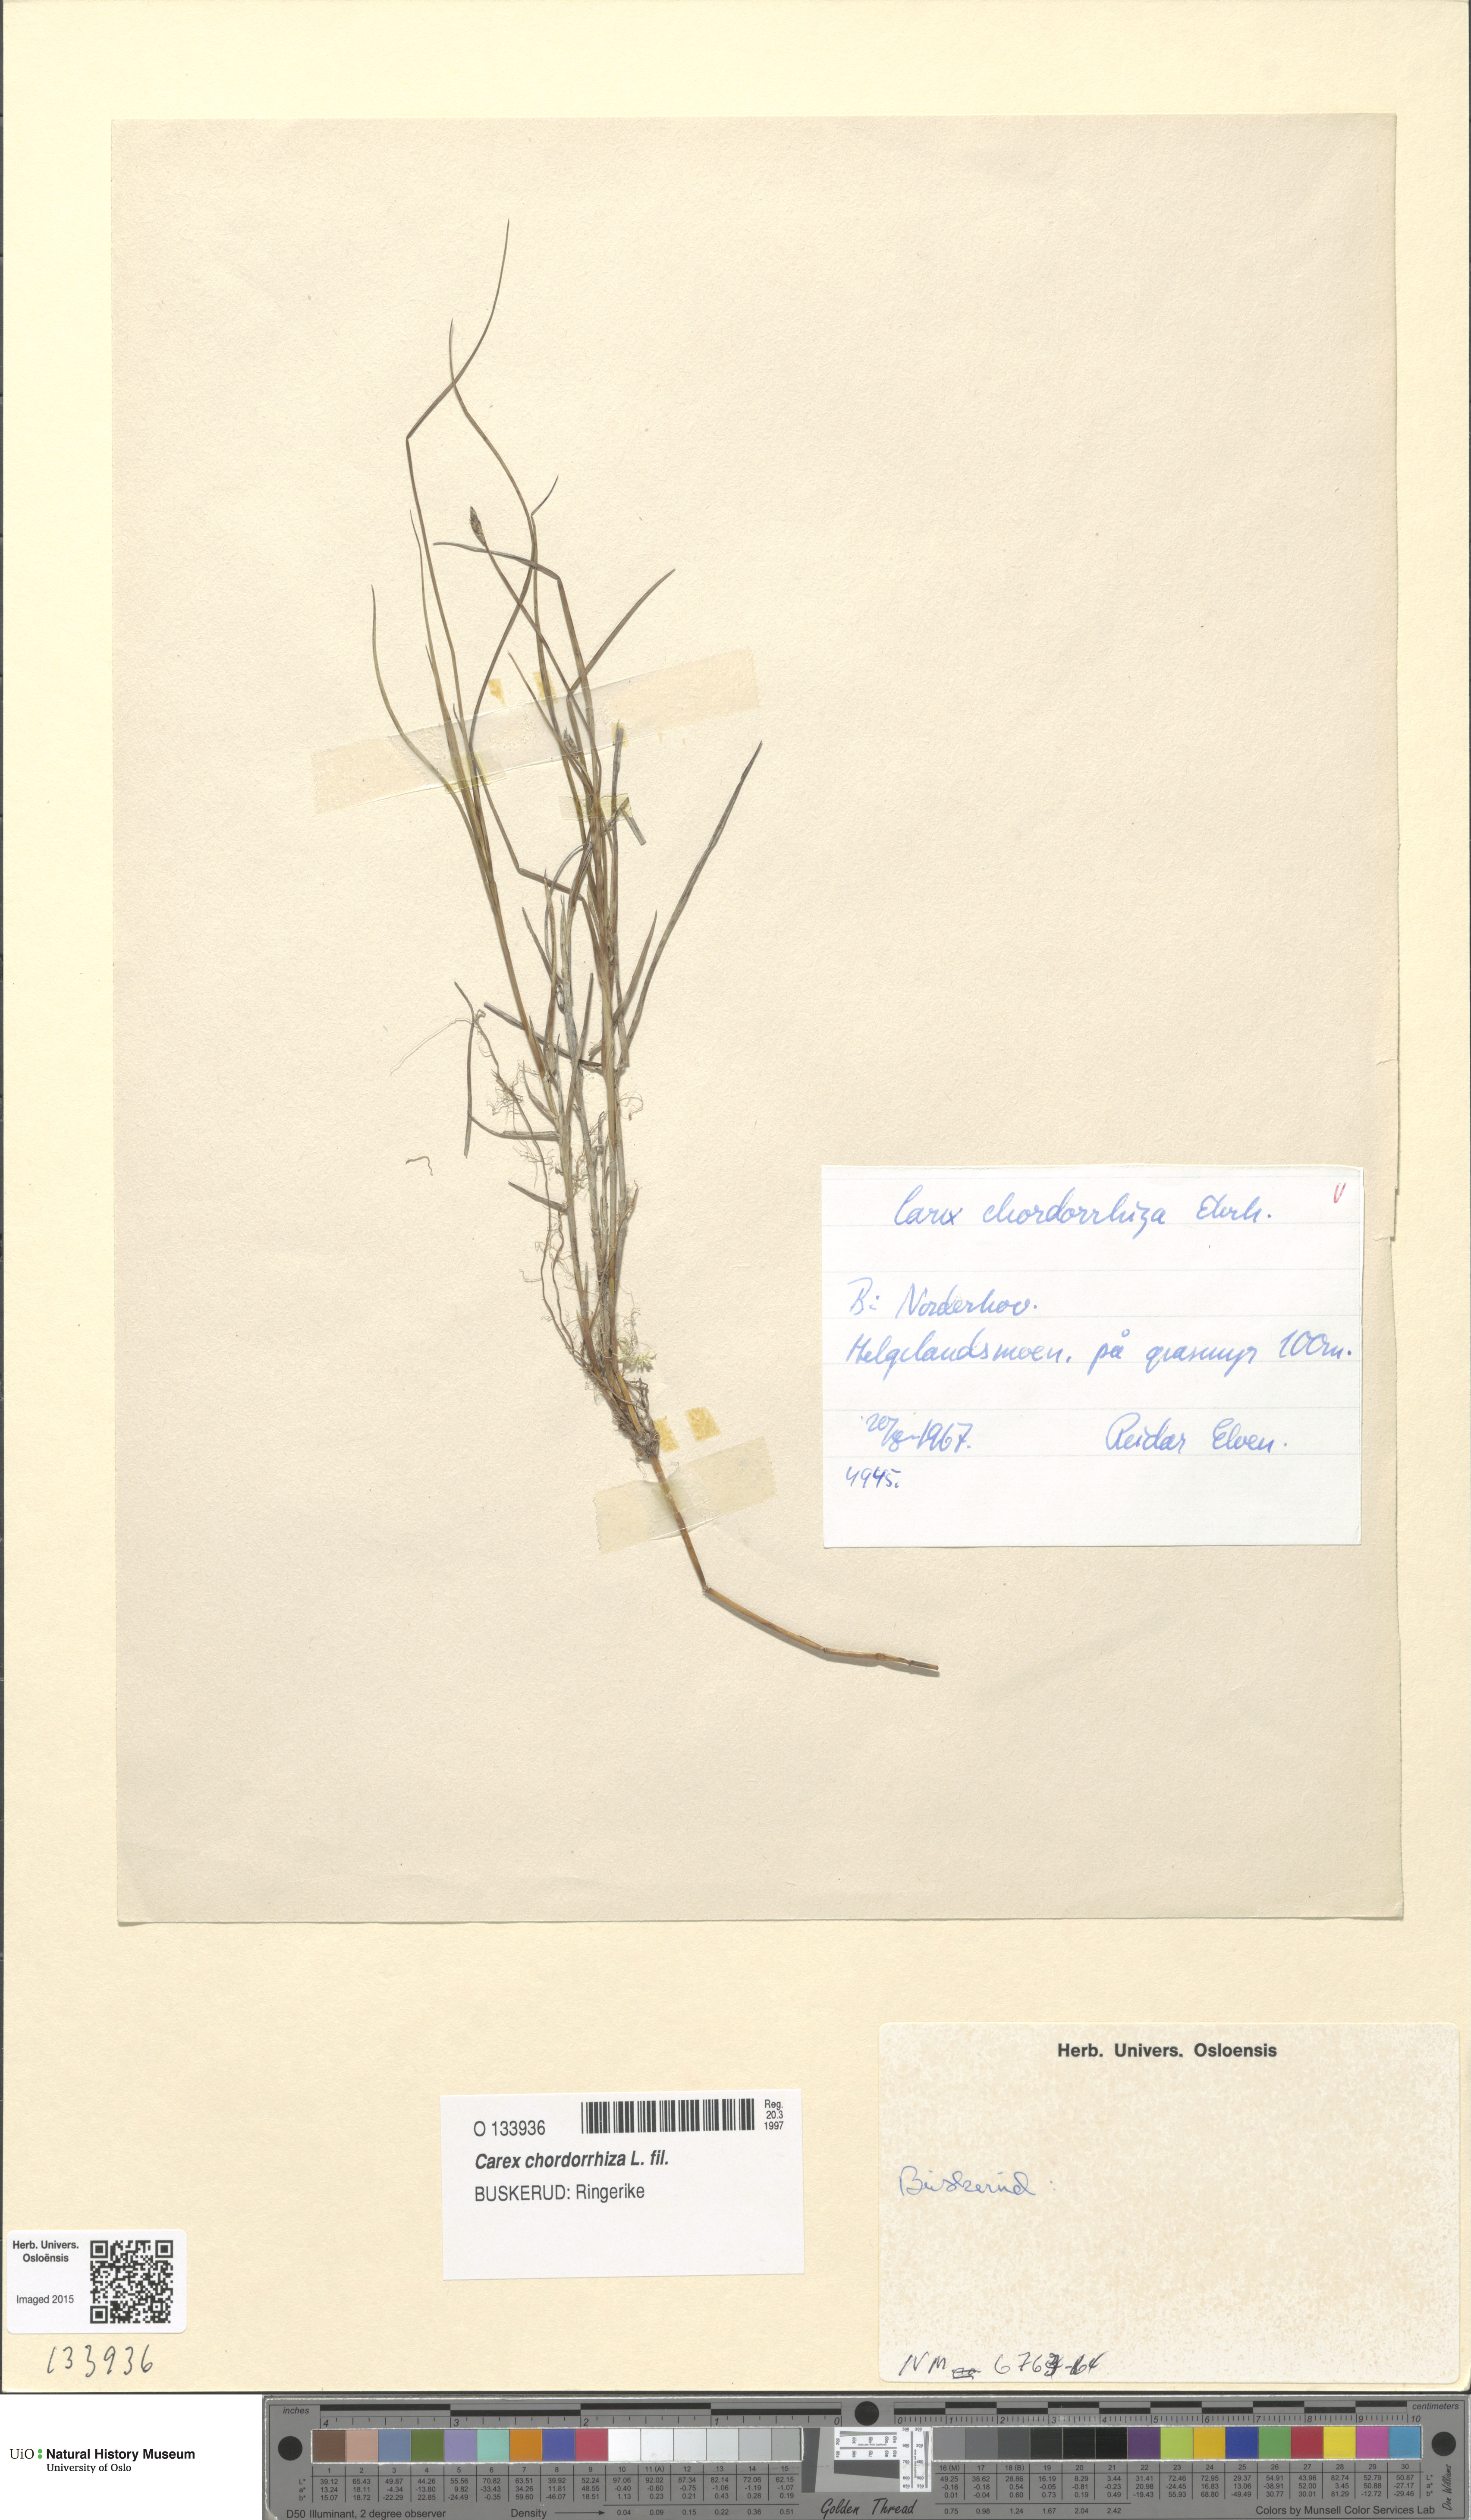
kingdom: Plantae
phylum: Tracheophyta
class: Liliopsida
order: Poales
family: Cyperaceae
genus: Carex
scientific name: Carex chordorrhiza
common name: String sedge
